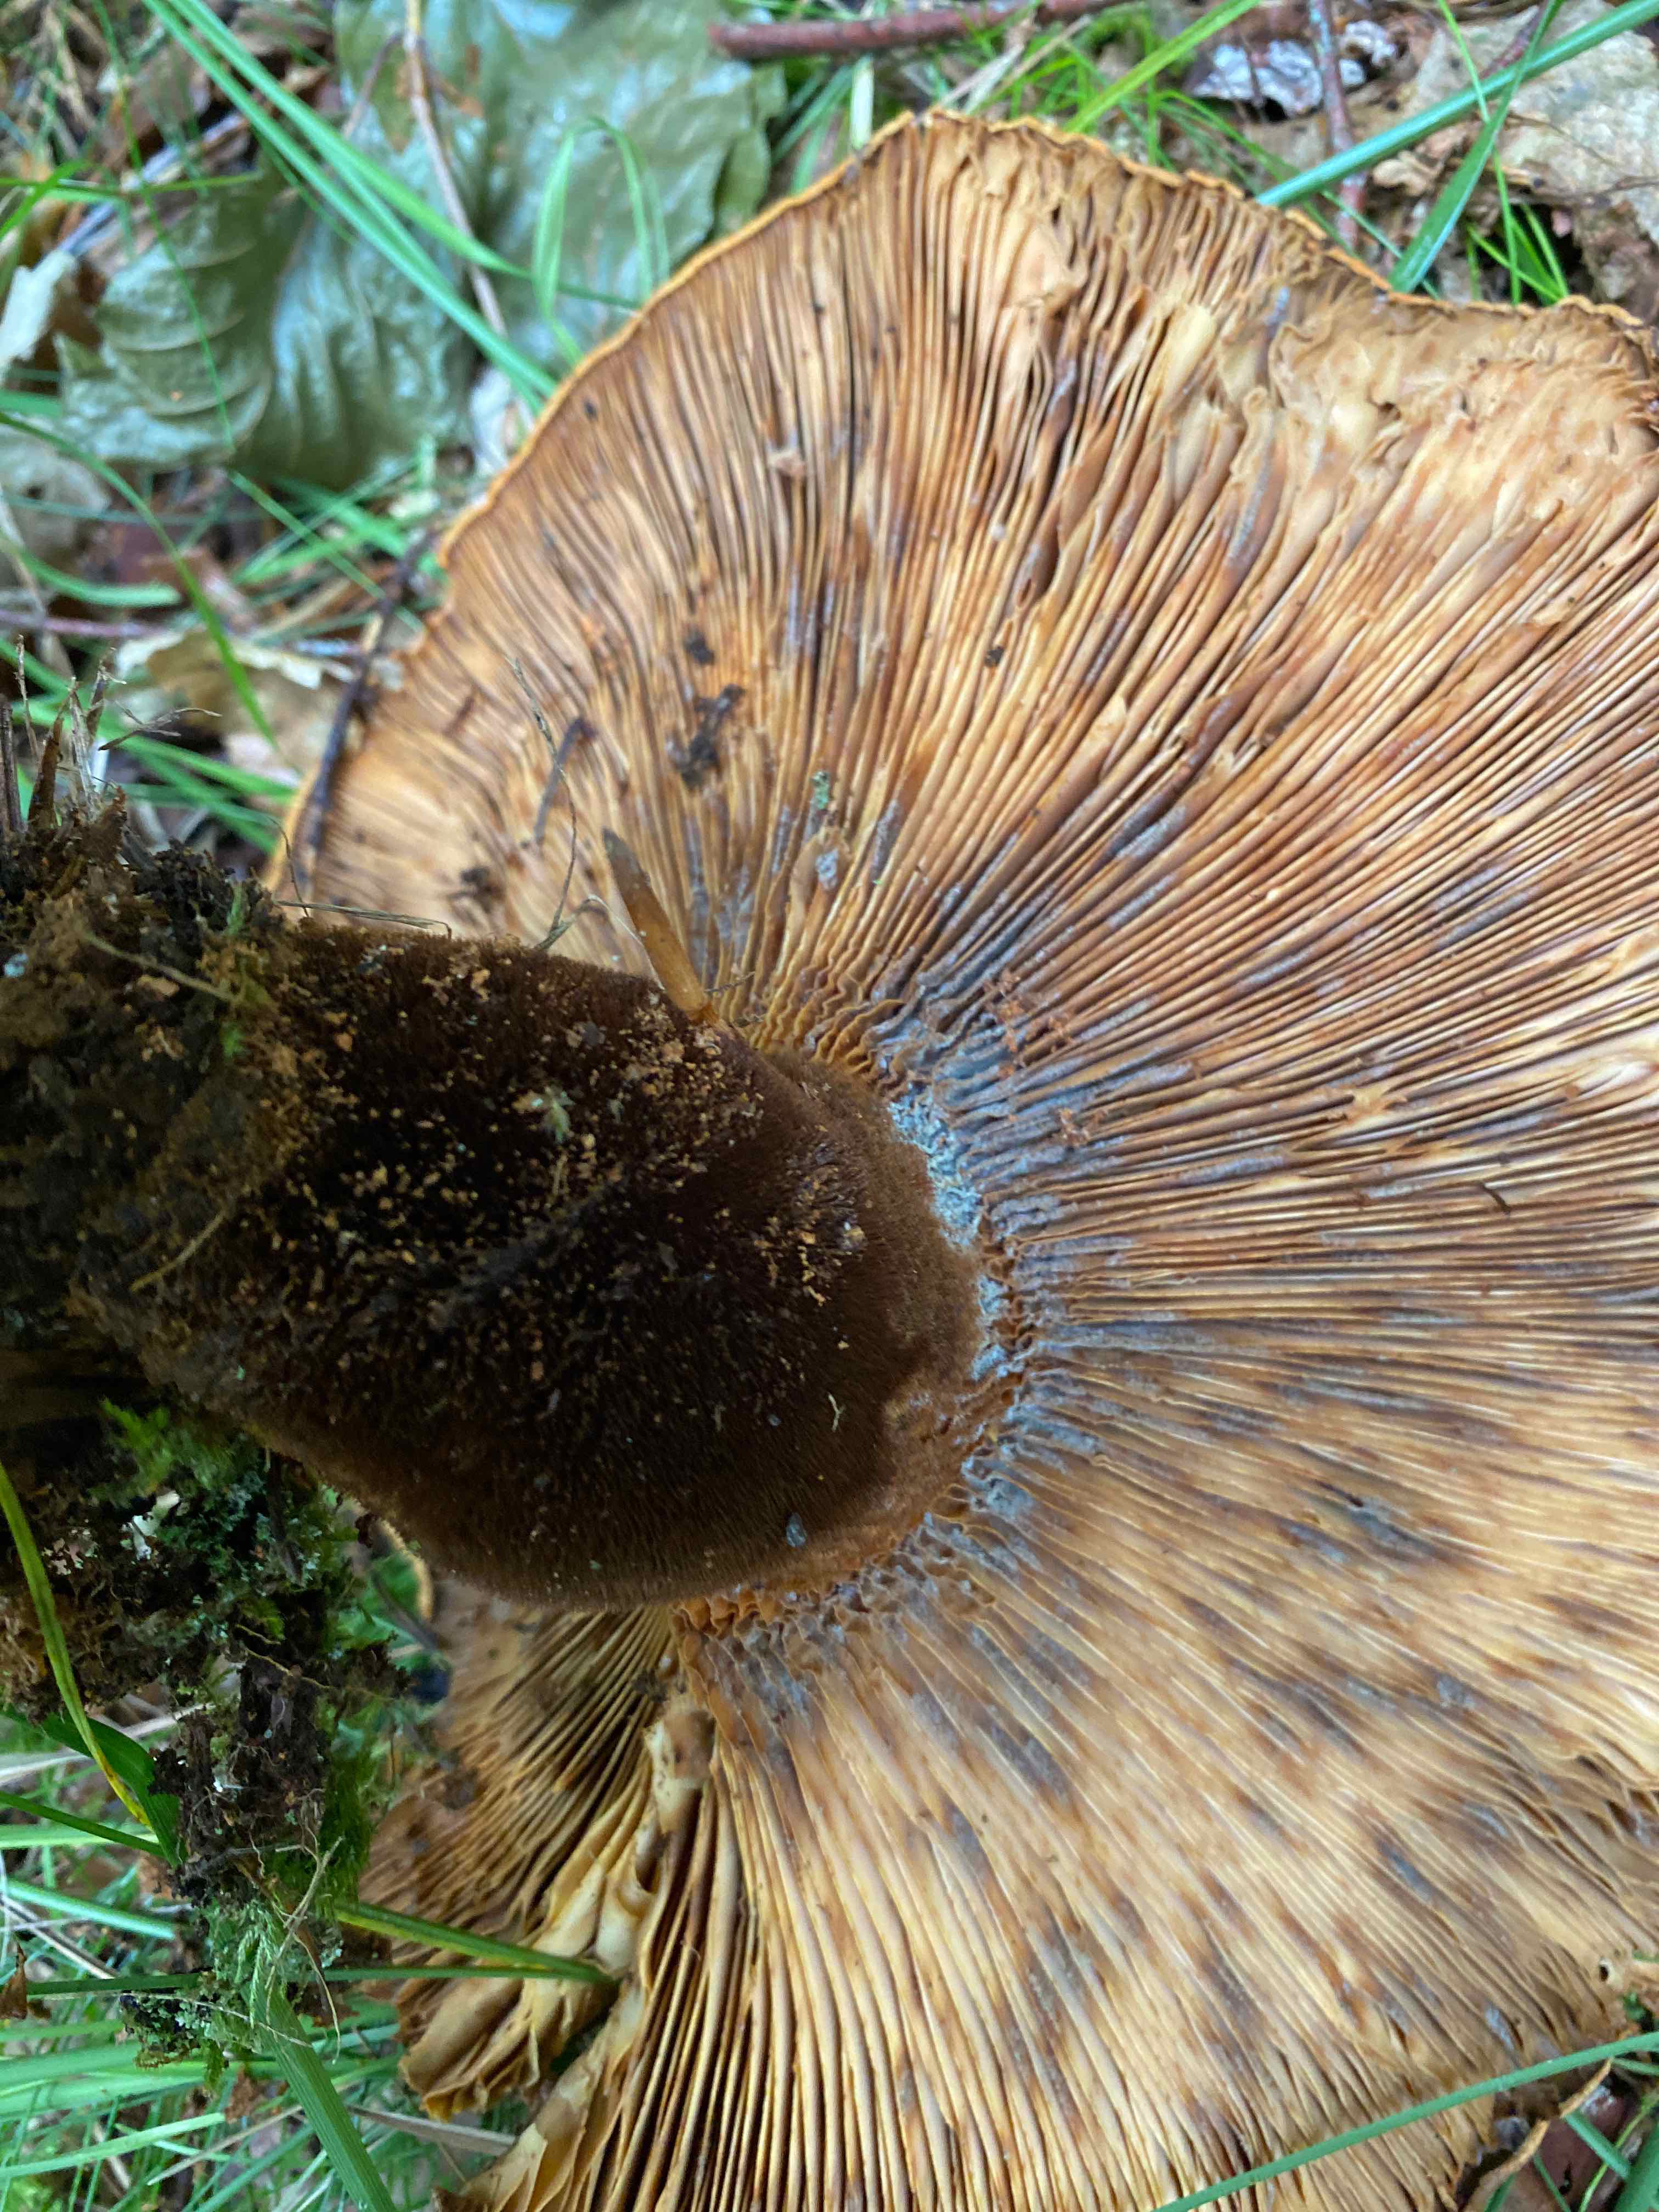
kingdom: Fungi
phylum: Basidiomycota
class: Agaricomycetes
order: Boletales
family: Tapinellaceae
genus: Tapinella
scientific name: Tapinella atrotomentosa
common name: sortfiltet viftesvamp
